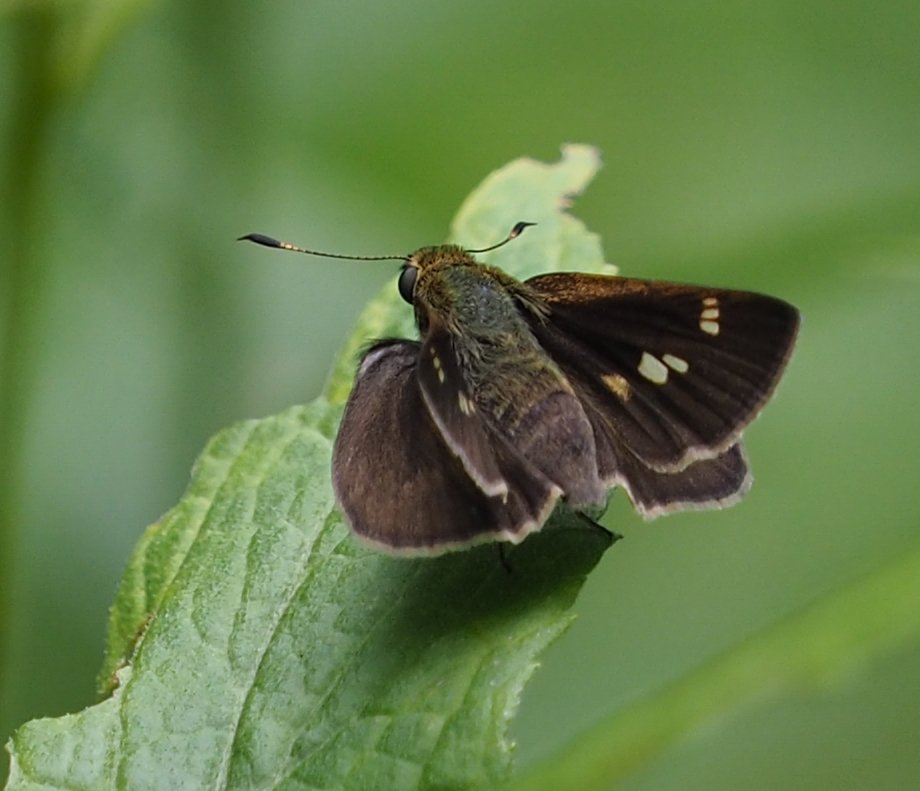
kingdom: Animalia
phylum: Arthropoda
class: Insecta
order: Lepidoptera
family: Hesperiidae
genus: Vernia
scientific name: Vernia verna
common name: Little Glassywing
